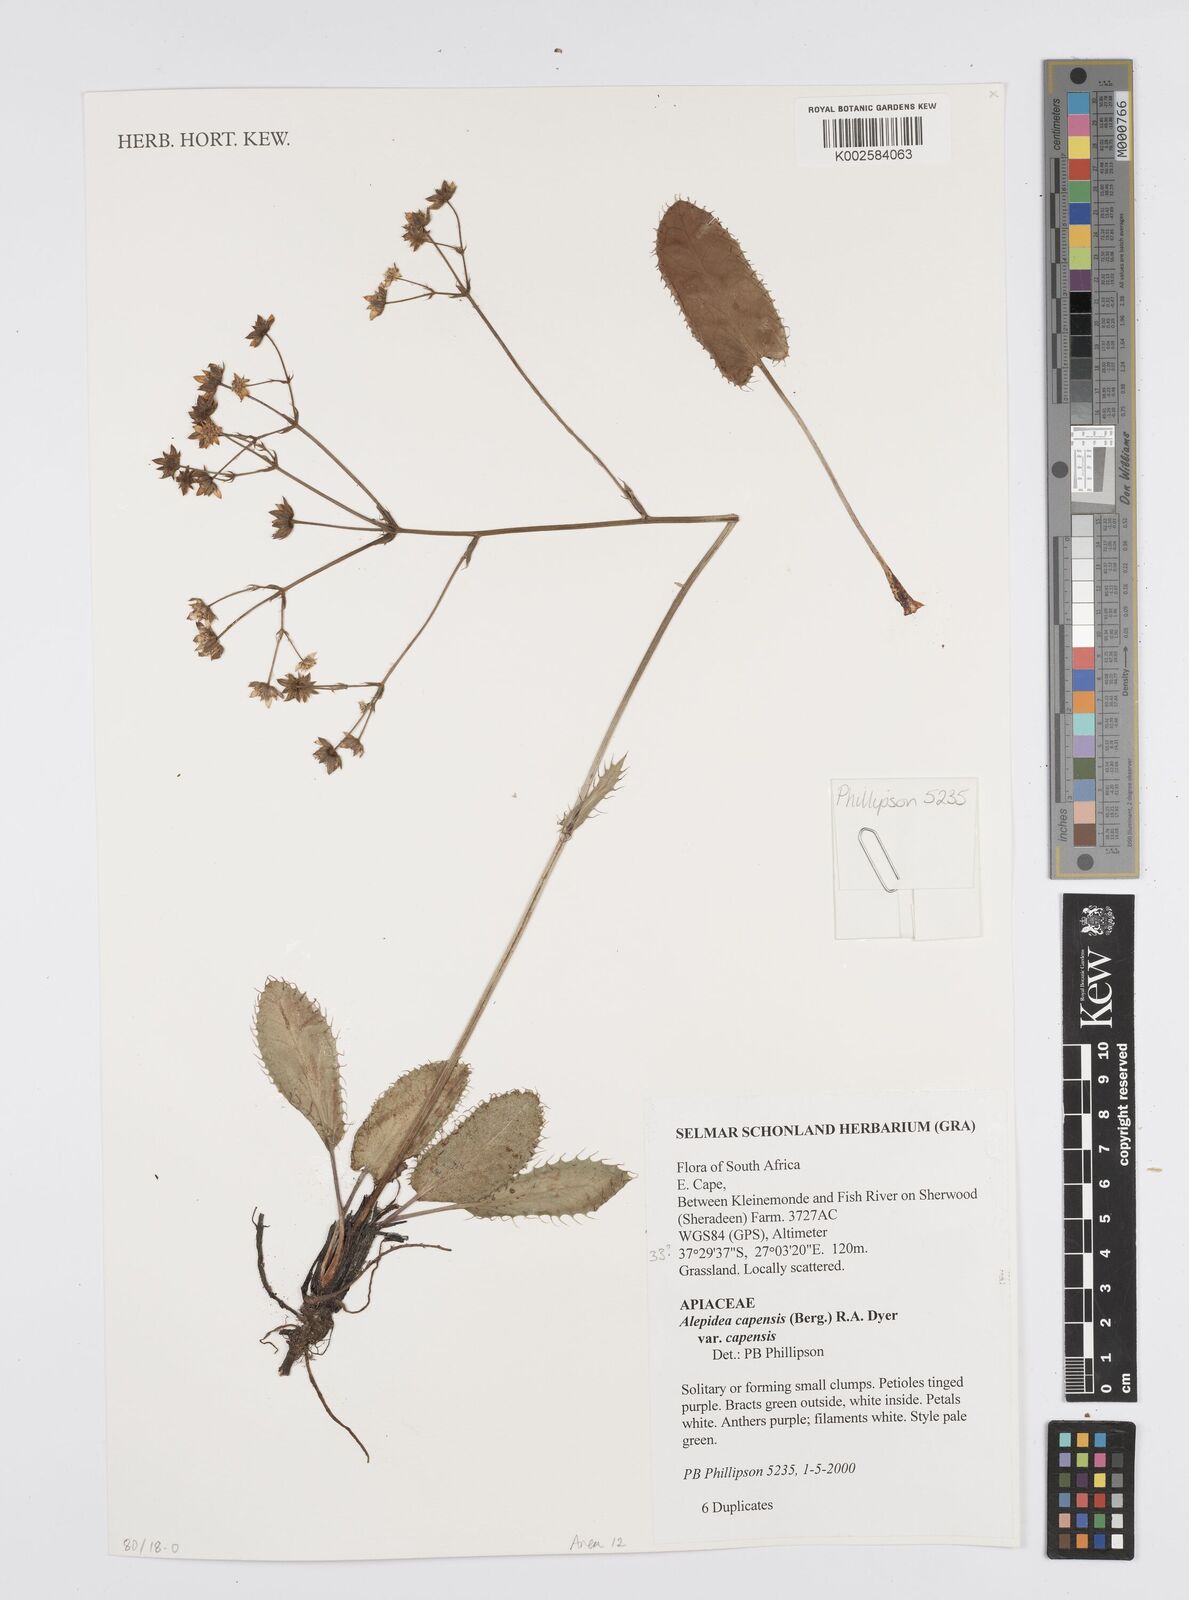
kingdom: Plantae
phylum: Tracheophyta
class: Magnoliopsida
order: Apiales
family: Apiaceae
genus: Alepidea
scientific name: Alepidea capensis
